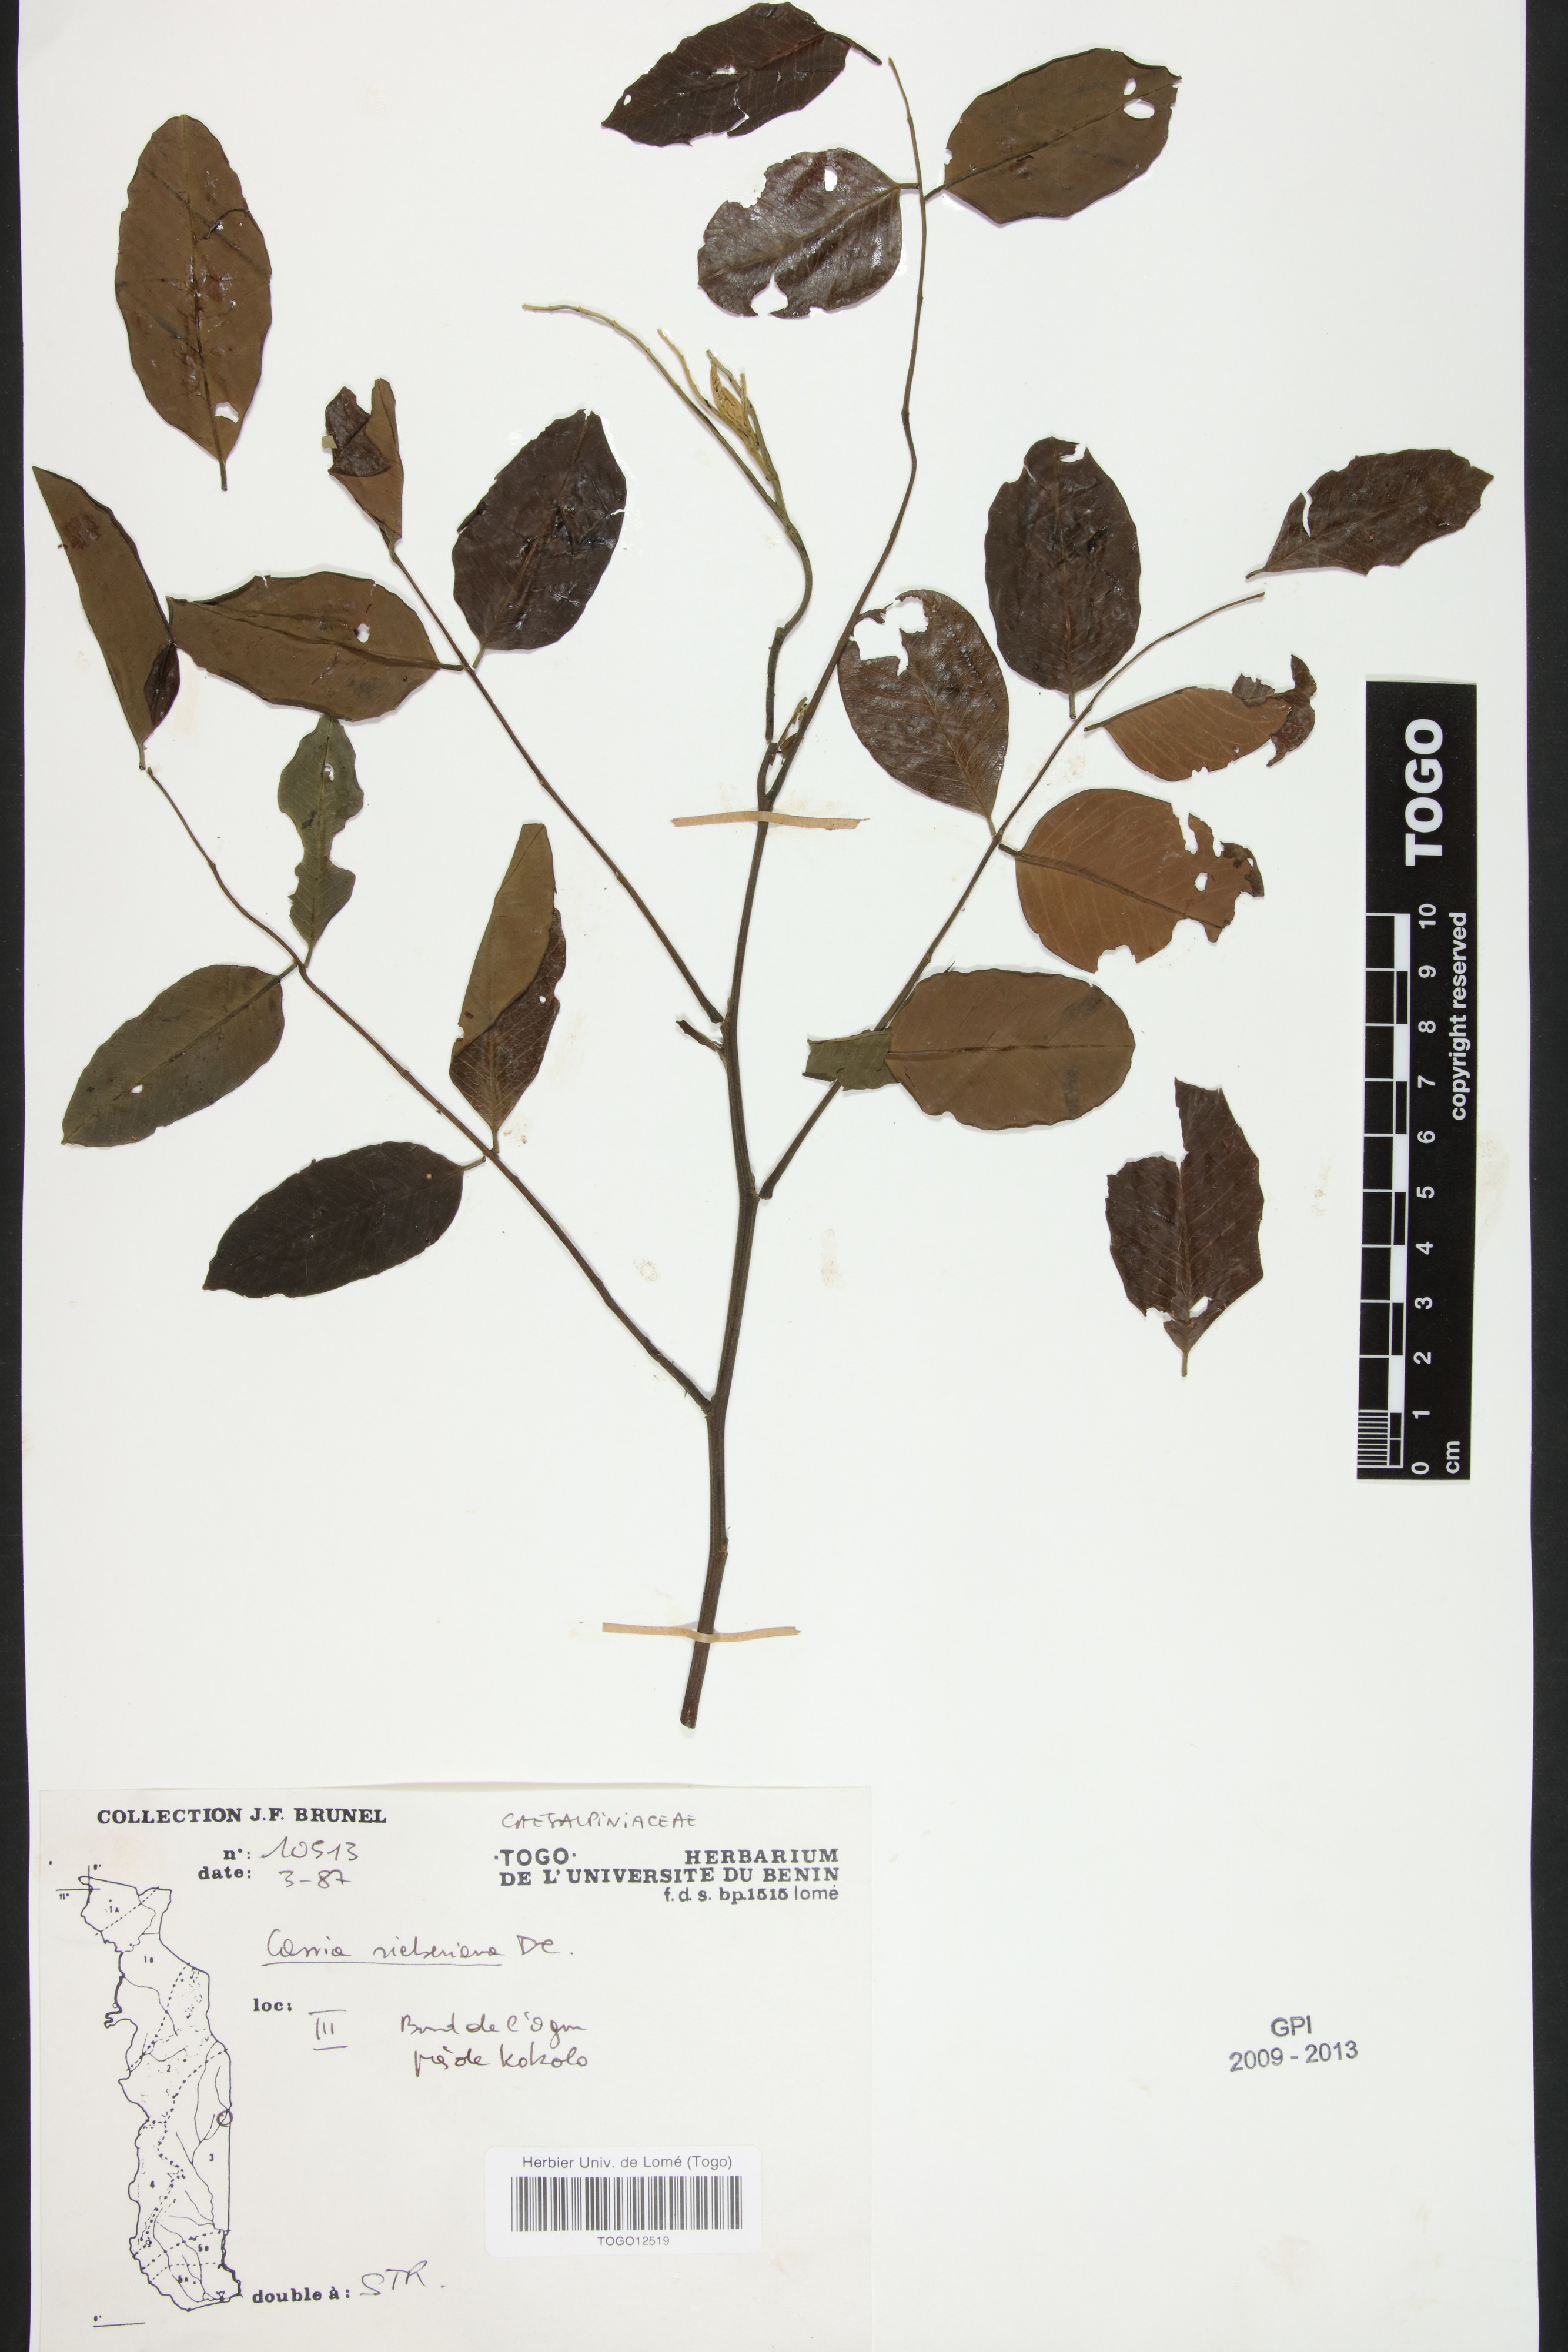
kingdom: Plantae
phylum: Tracheophyta
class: Magnoliopsida
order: Fabales
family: Fabaceae
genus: Cassia
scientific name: Cassia sieberiana
